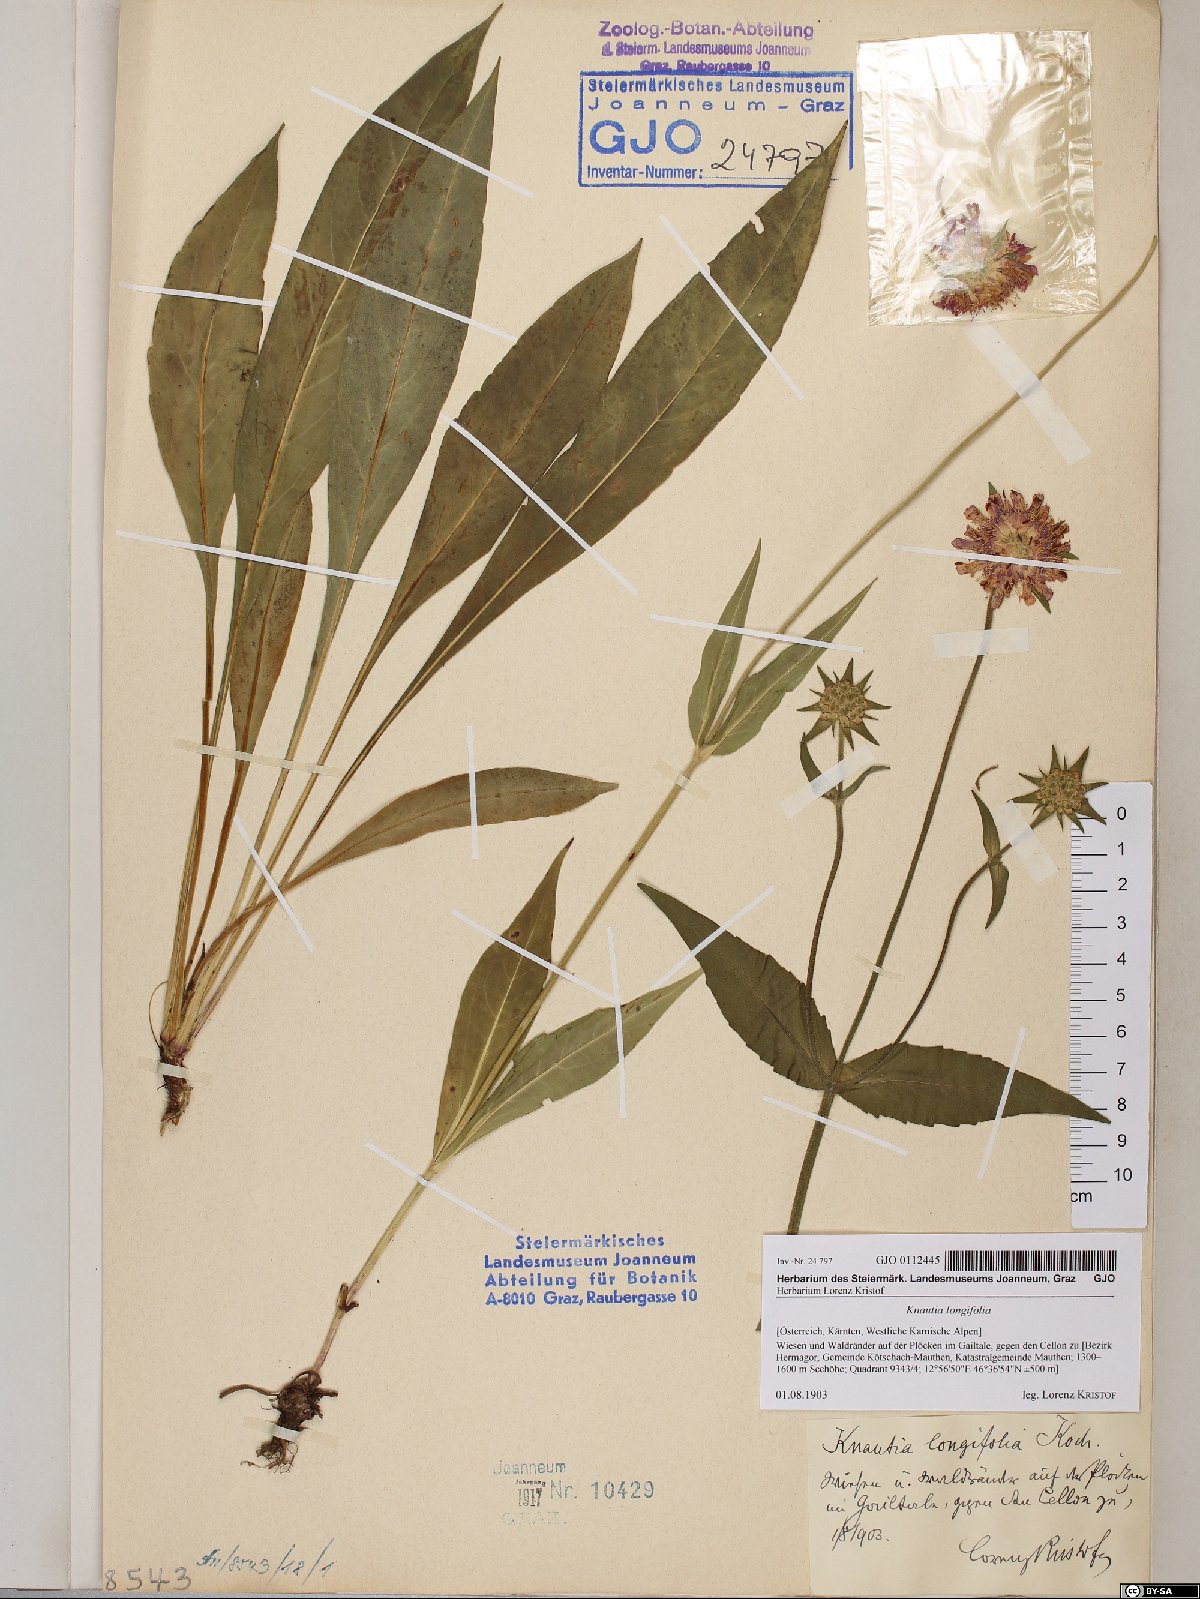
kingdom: Plantae
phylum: Tracheophyta
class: Magnoliopsida
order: Dipsacales
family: Caprifoliaceae
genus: Knautia
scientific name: Knautia longifolia
